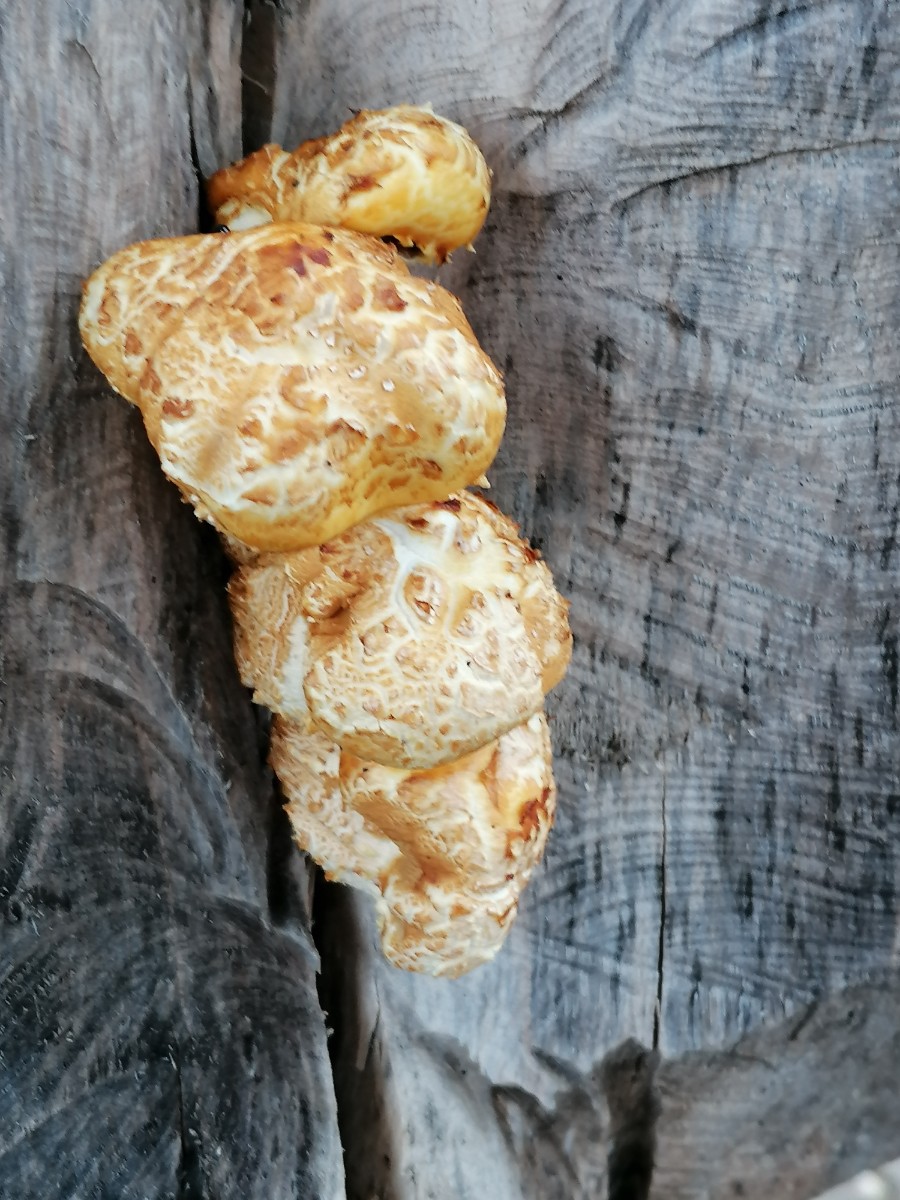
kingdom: Fungi
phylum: Basidiomycota
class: Agaricomycetes
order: Agaricales
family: Strophariaceae
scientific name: Strophariaceae
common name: bredbladfamilien
